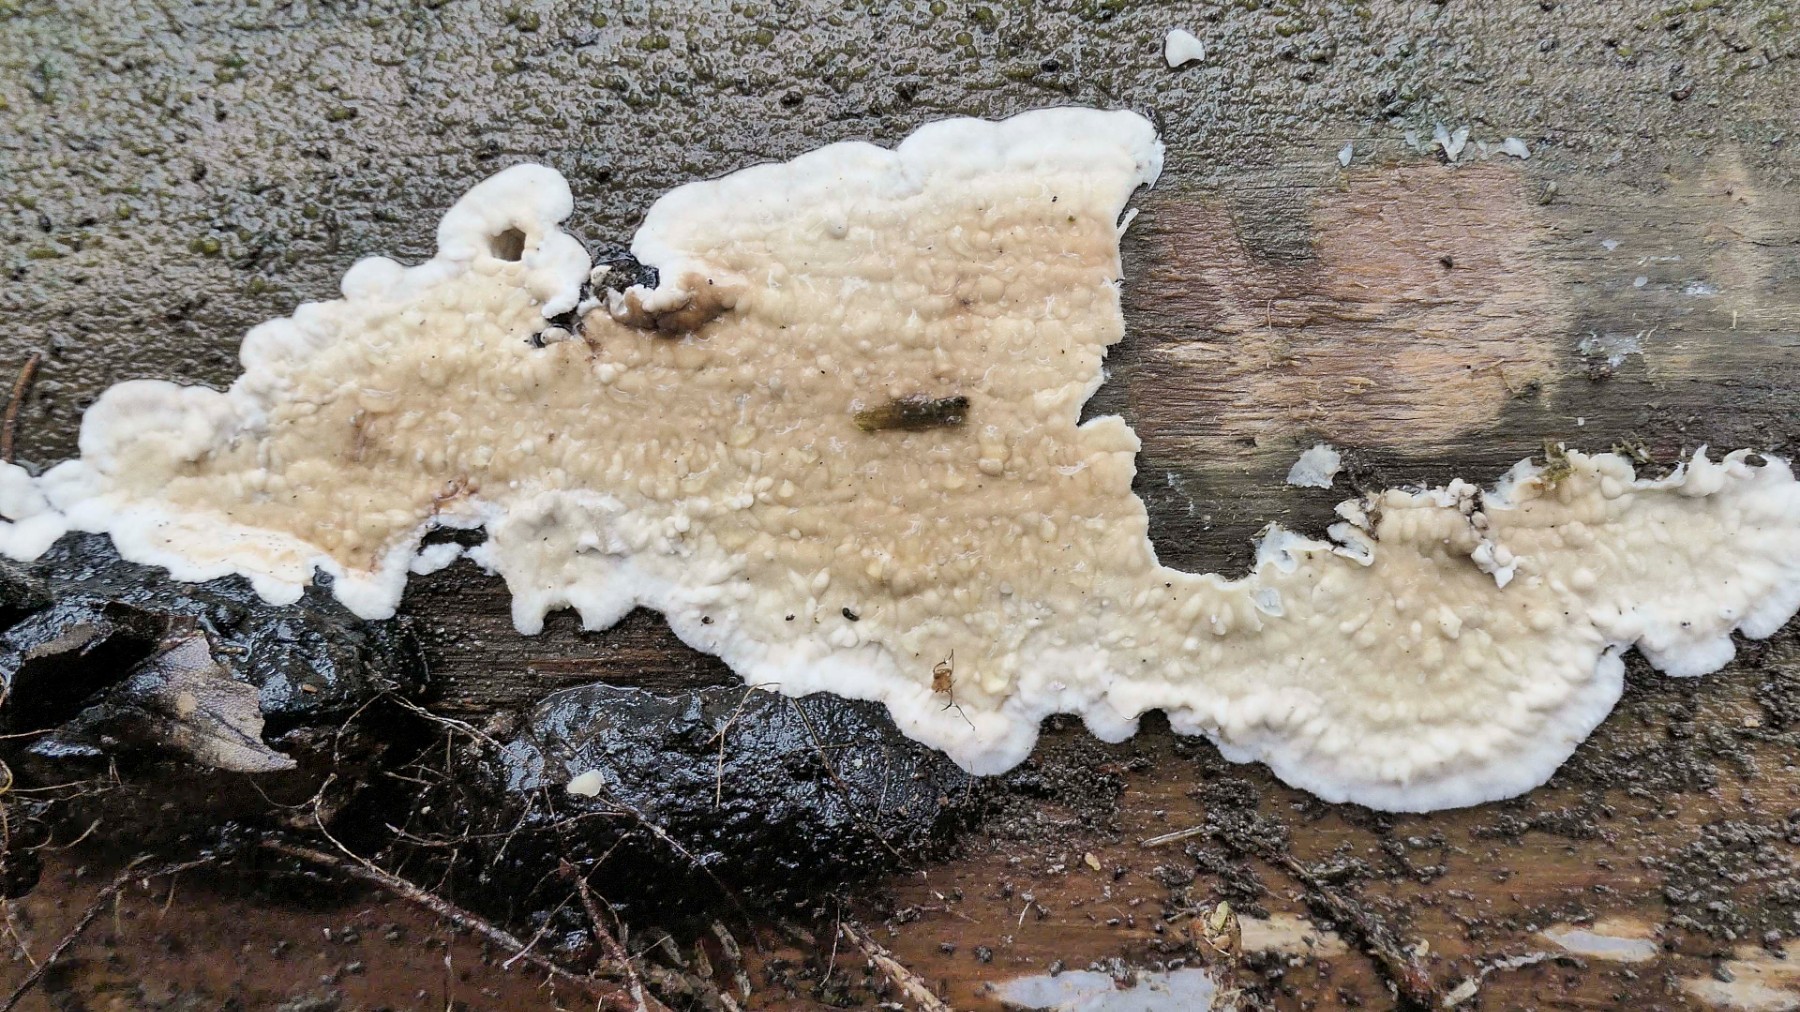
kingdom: Fungi
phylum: Basidiomycota
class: Agaricomycetes
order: Polyporales
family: Dacryobolaceae
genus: Dacryobolus
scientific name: Dacryobolus karstenii
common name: glat vulkanskorpe
